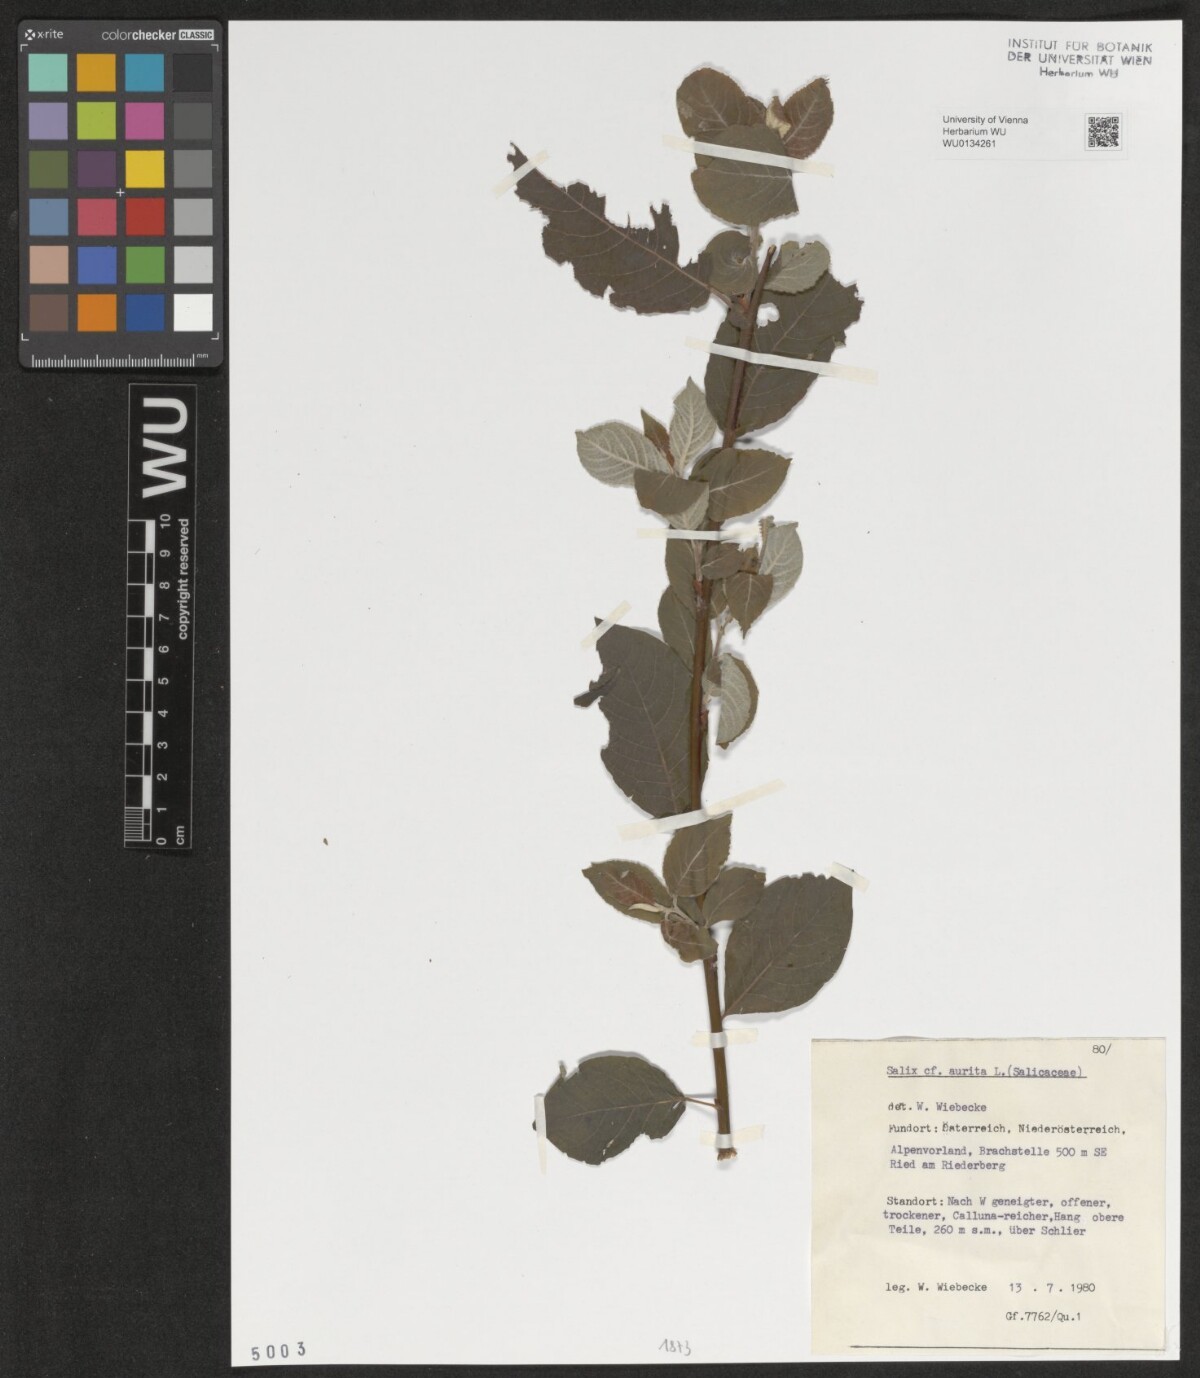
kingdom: Plantae
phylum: Tracheophyta
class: Magnoliopsida
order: Malpighiales
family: Salicaceae
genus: Salix
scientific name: Salix aurita
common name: Eared willow
